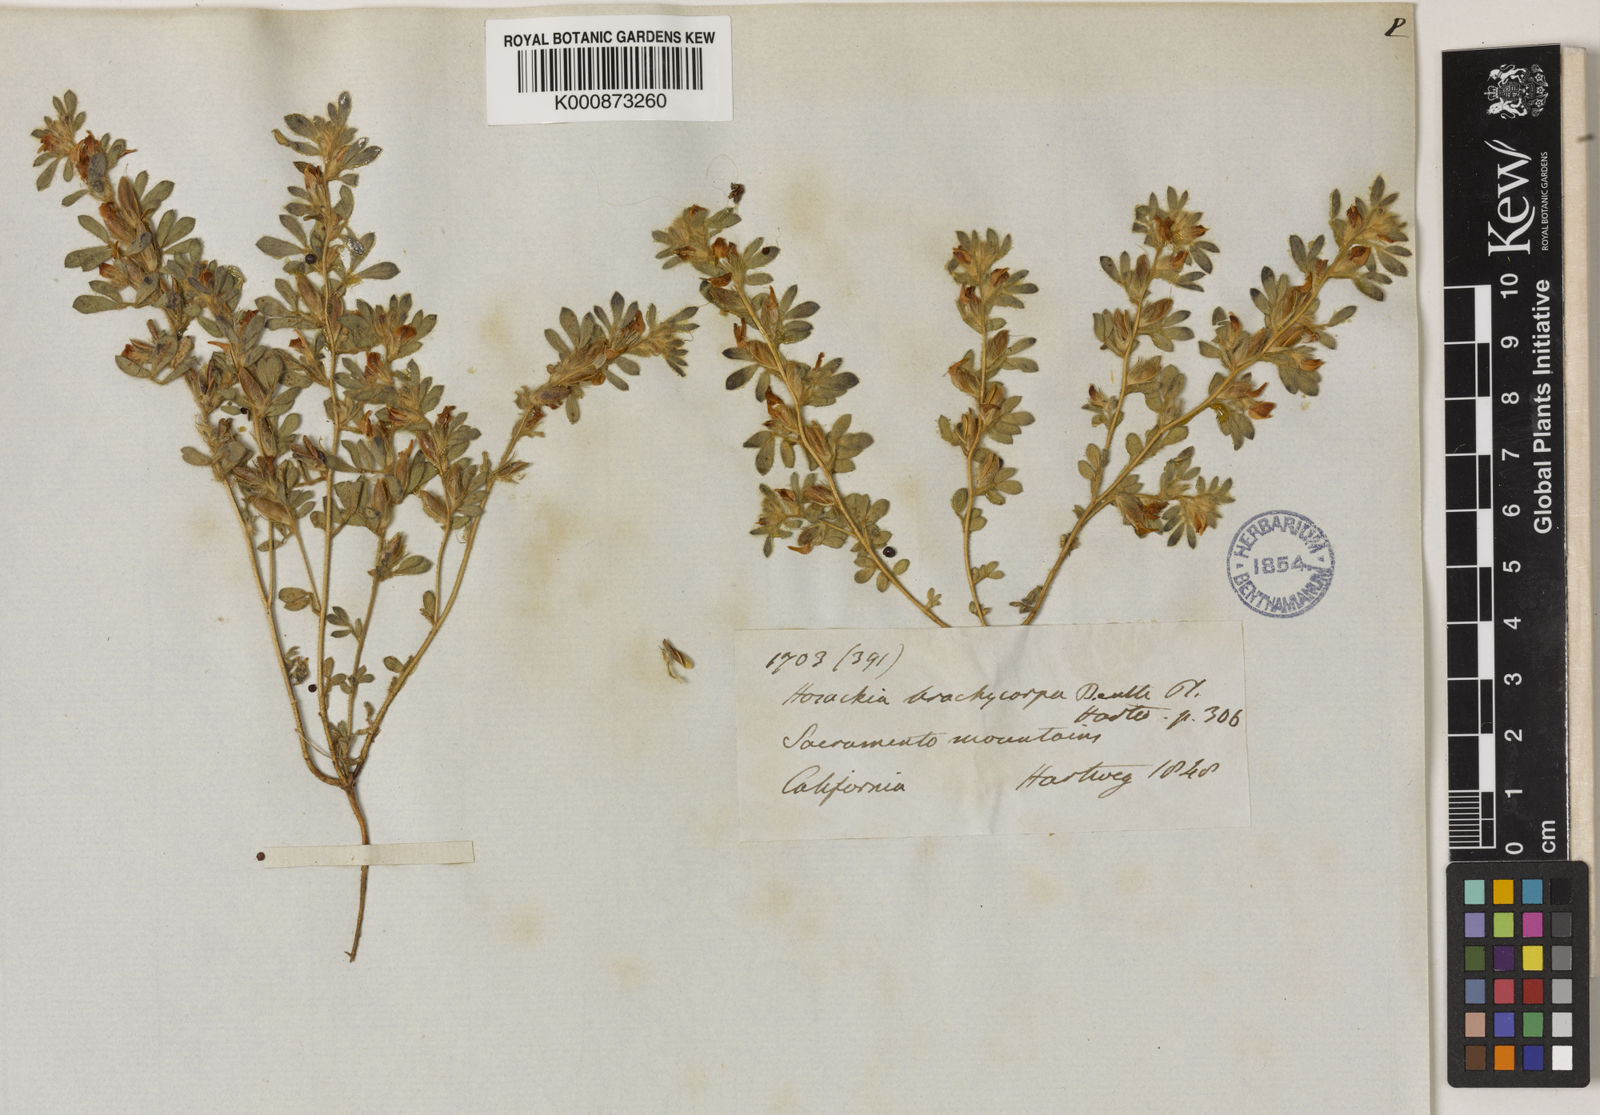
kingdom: Plantae
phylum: Tracheophyta
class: Magnoliopsida
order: Fabales
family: Fabaceae
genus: Acmispon
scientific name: Acmispon brachycarpus
